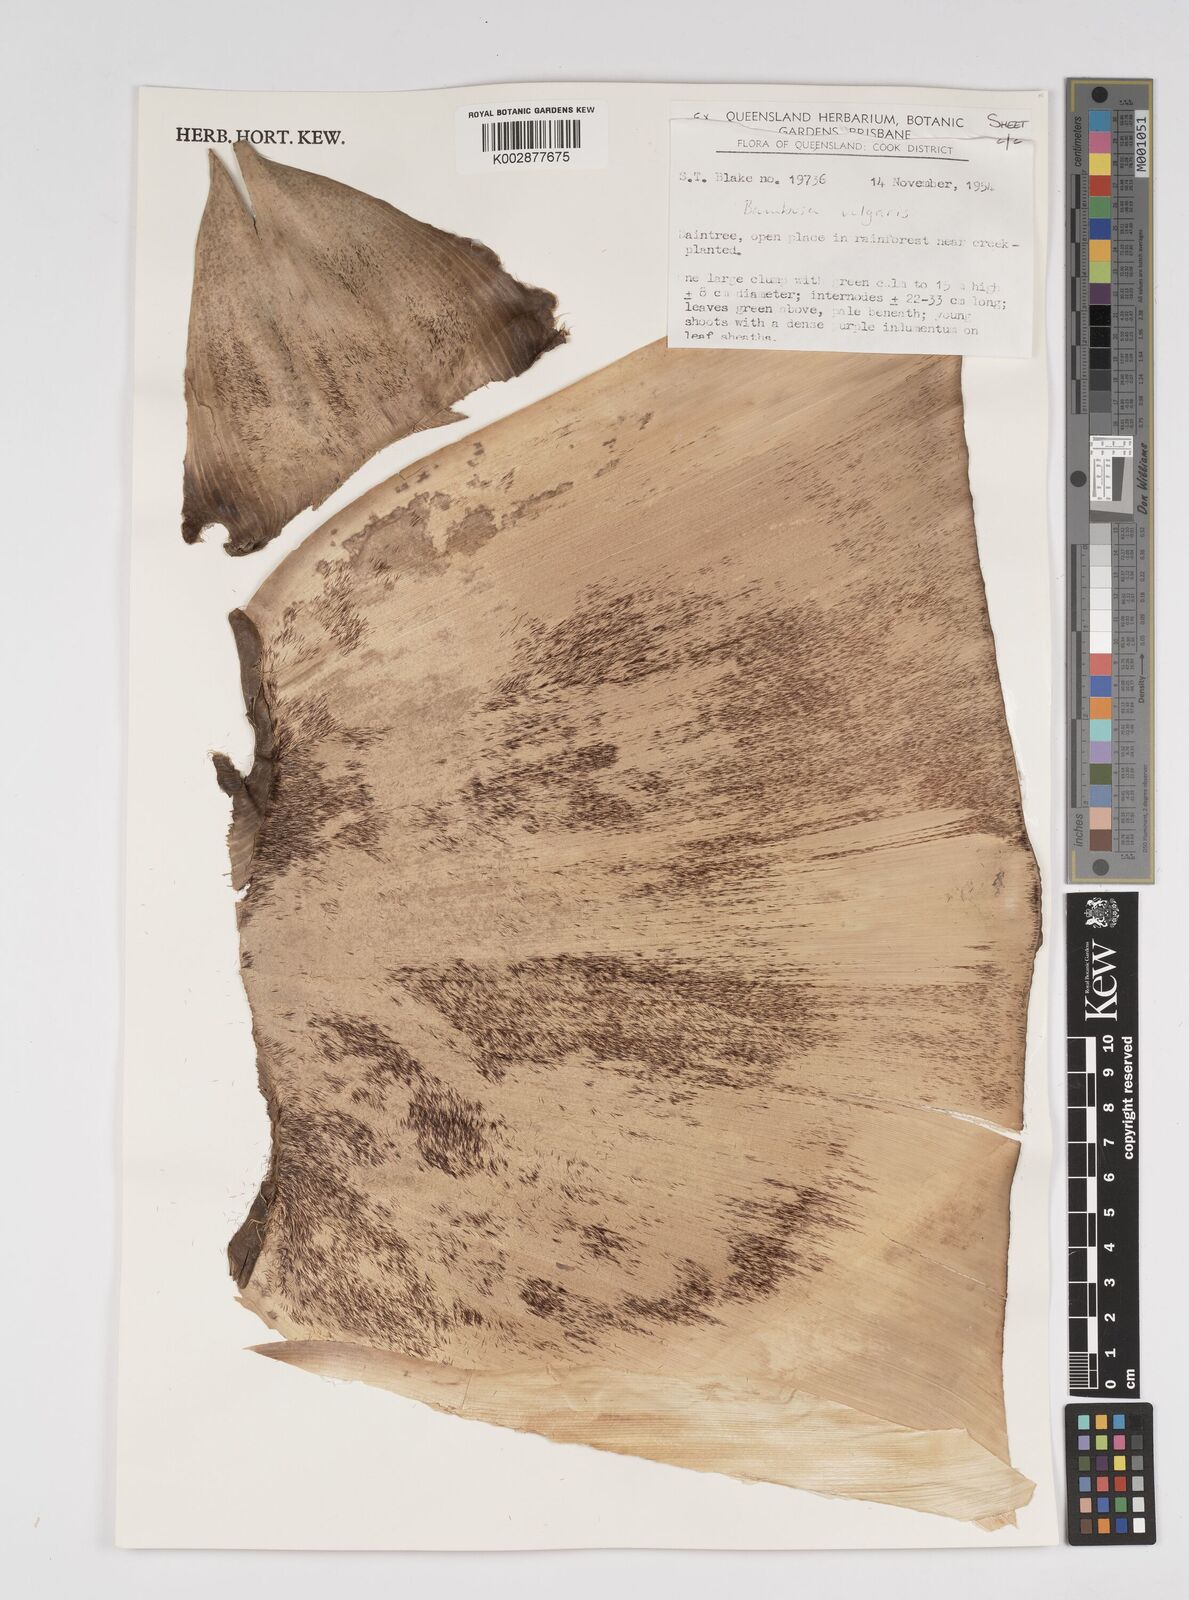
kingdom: Plantae
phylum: Tracheophyta
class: Liliopsida
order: Poales
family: Poaceae
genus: Bambusa
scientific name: Bambusa balcooa
